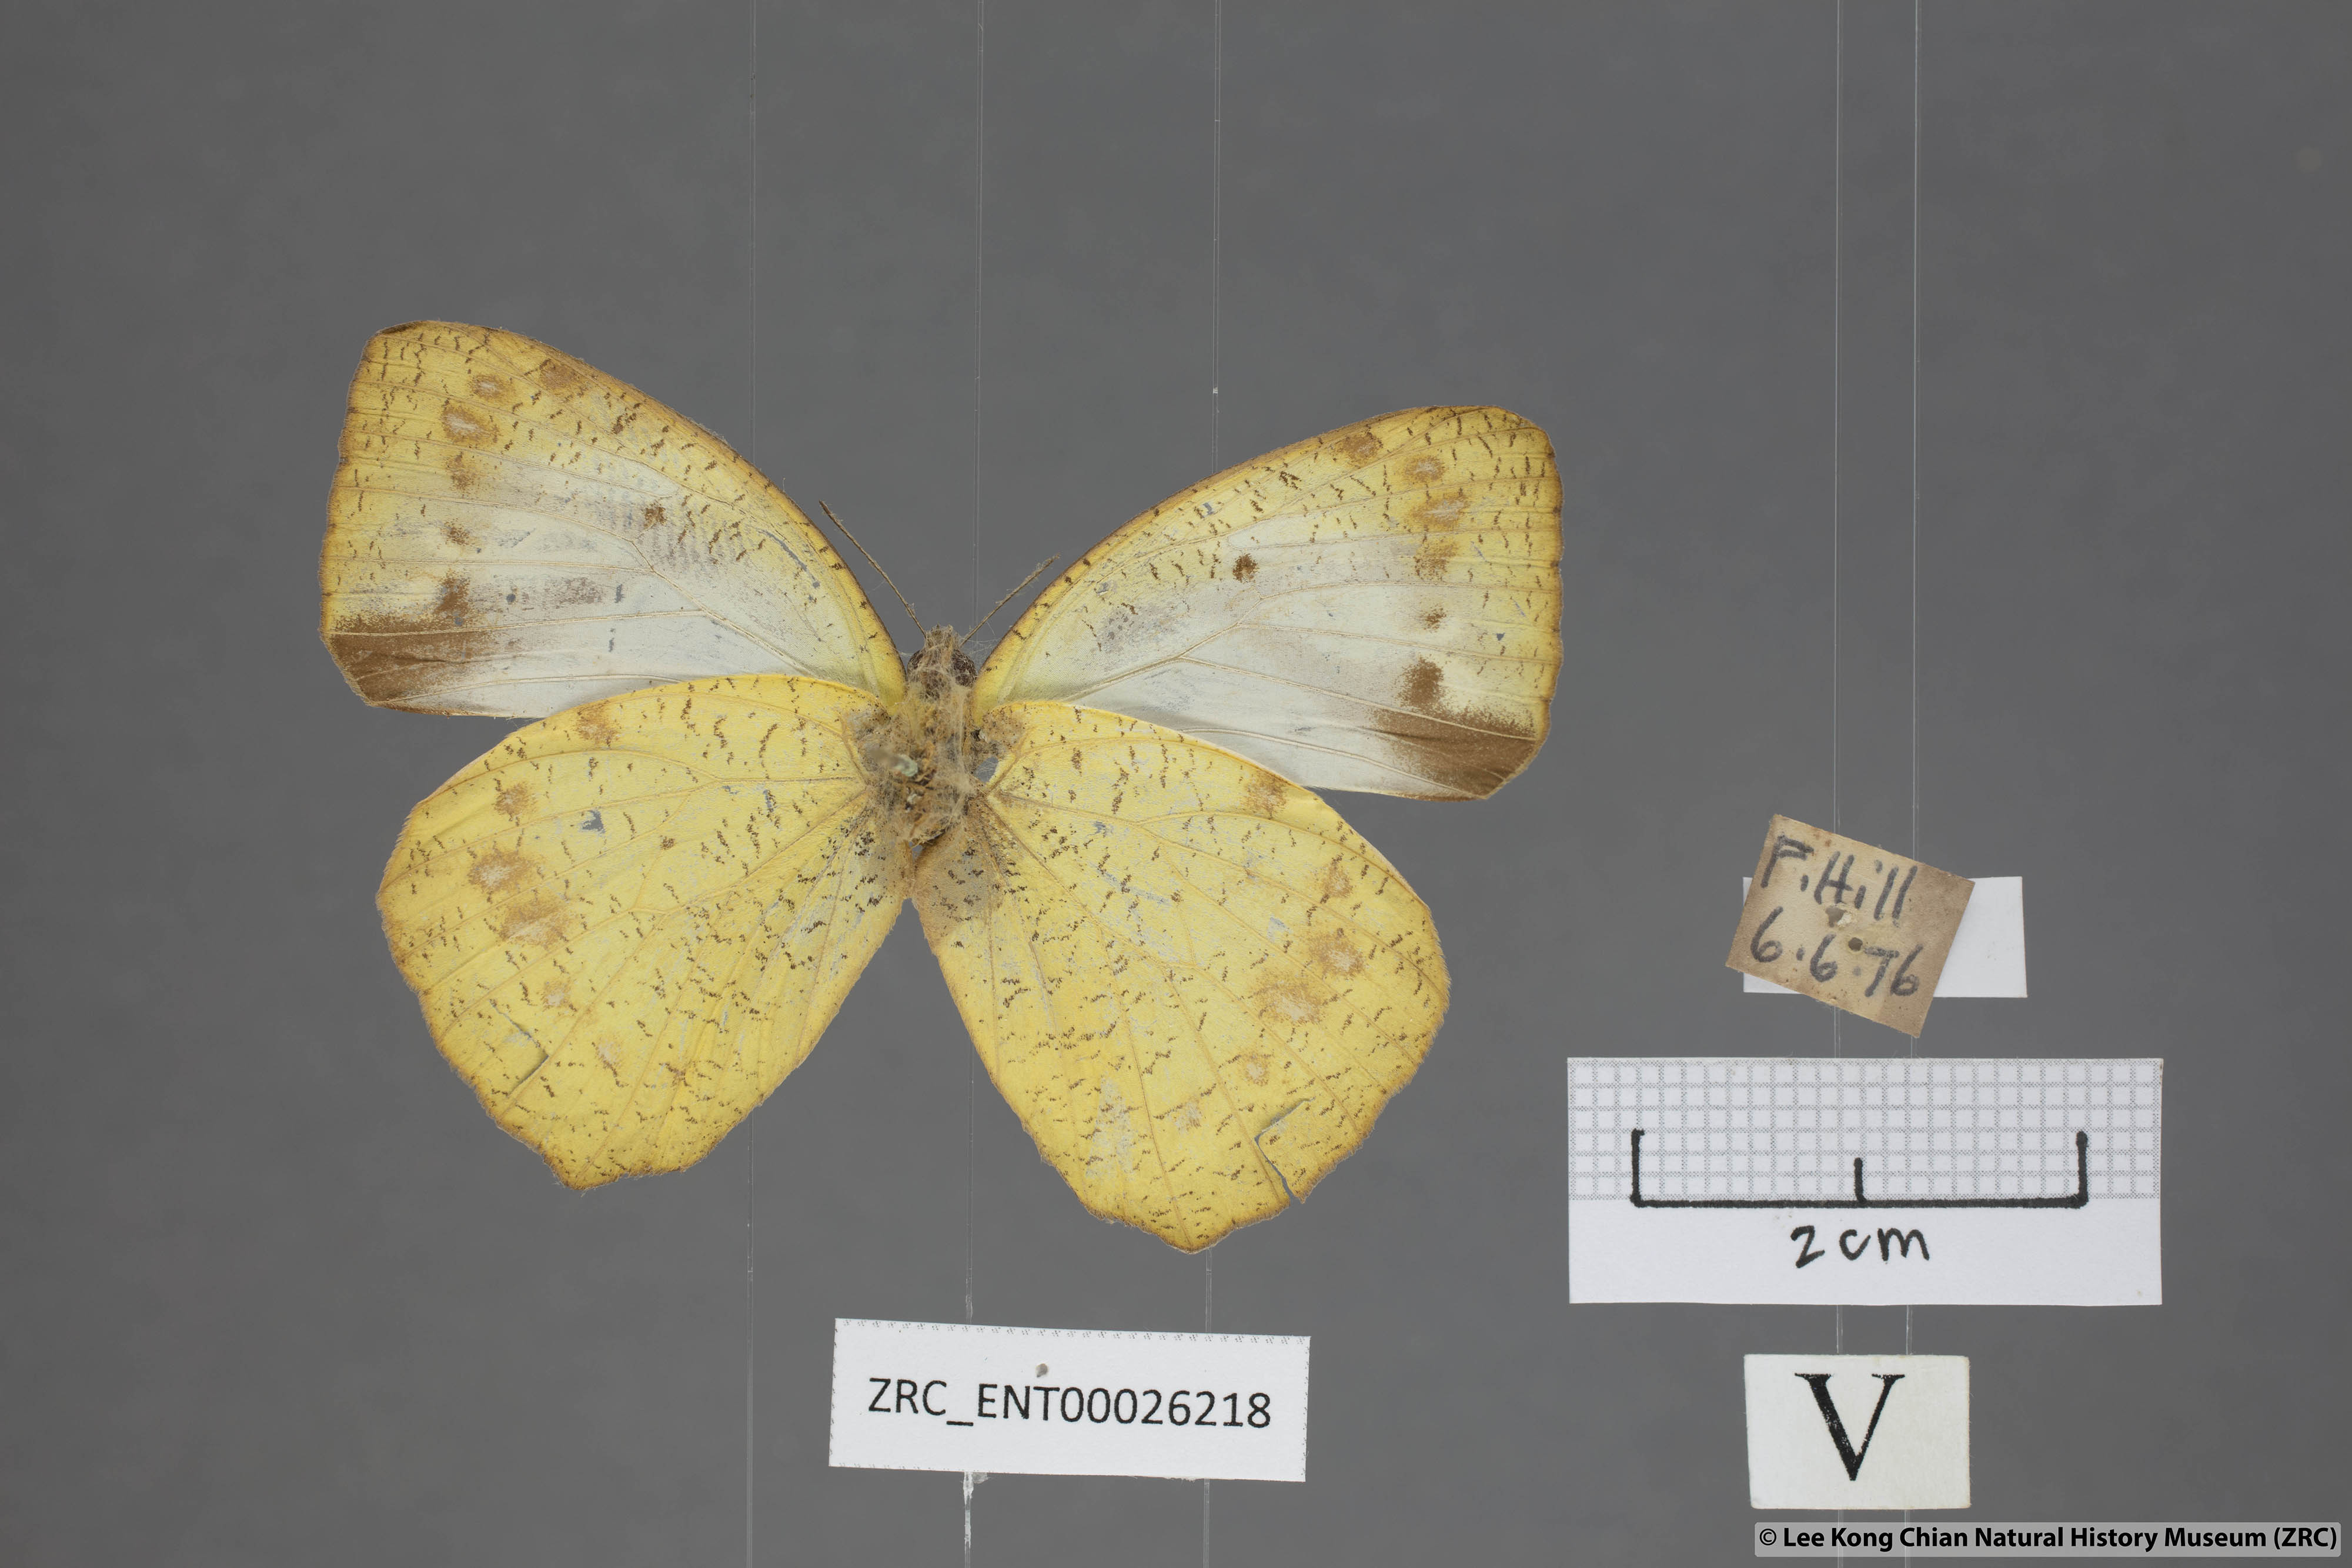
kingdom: Animalia
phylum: Arthropoda
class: Insecta
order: Lepidoptera
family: Pieridae
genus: Ixias
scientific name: Ixias pyrene
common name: Yellow orange tip
